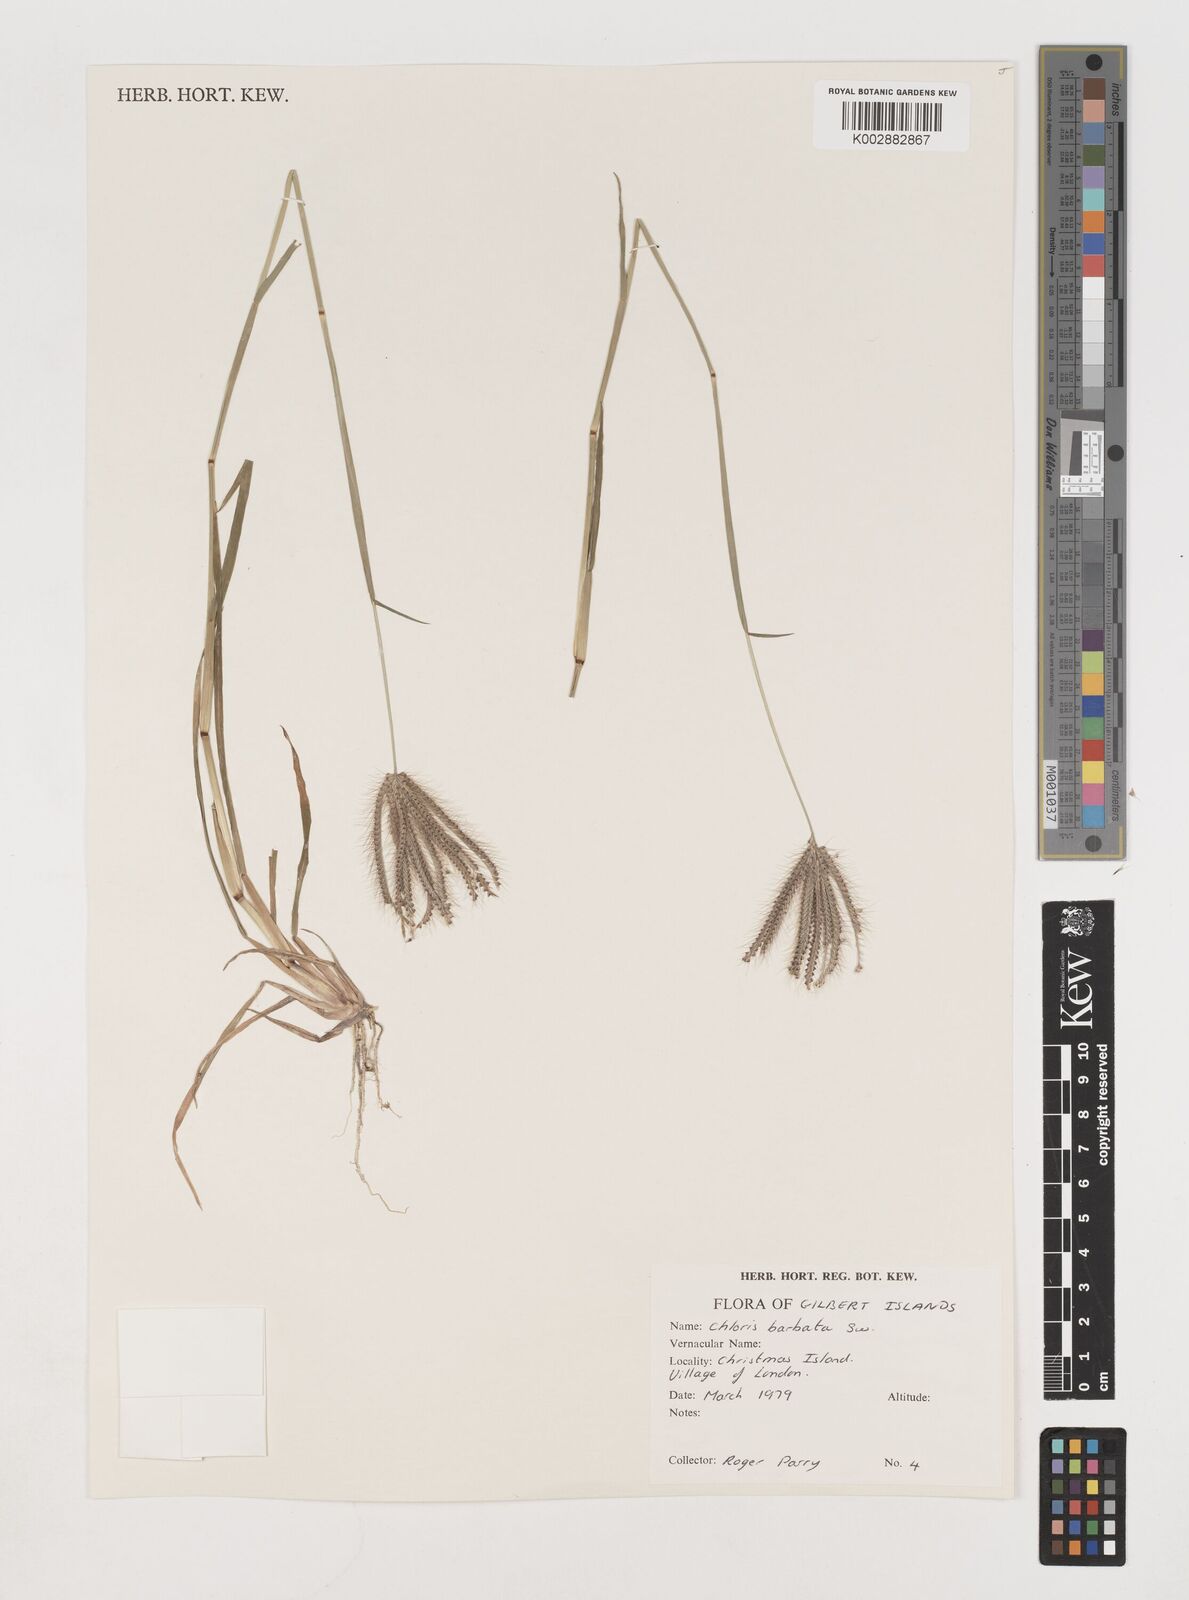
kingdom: Plantae
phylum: Tracheophyta
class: Liliopsida
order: Poales
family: Poaceae
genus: Chloris
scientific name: Chloris barbata
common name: Swollen fingergrass
